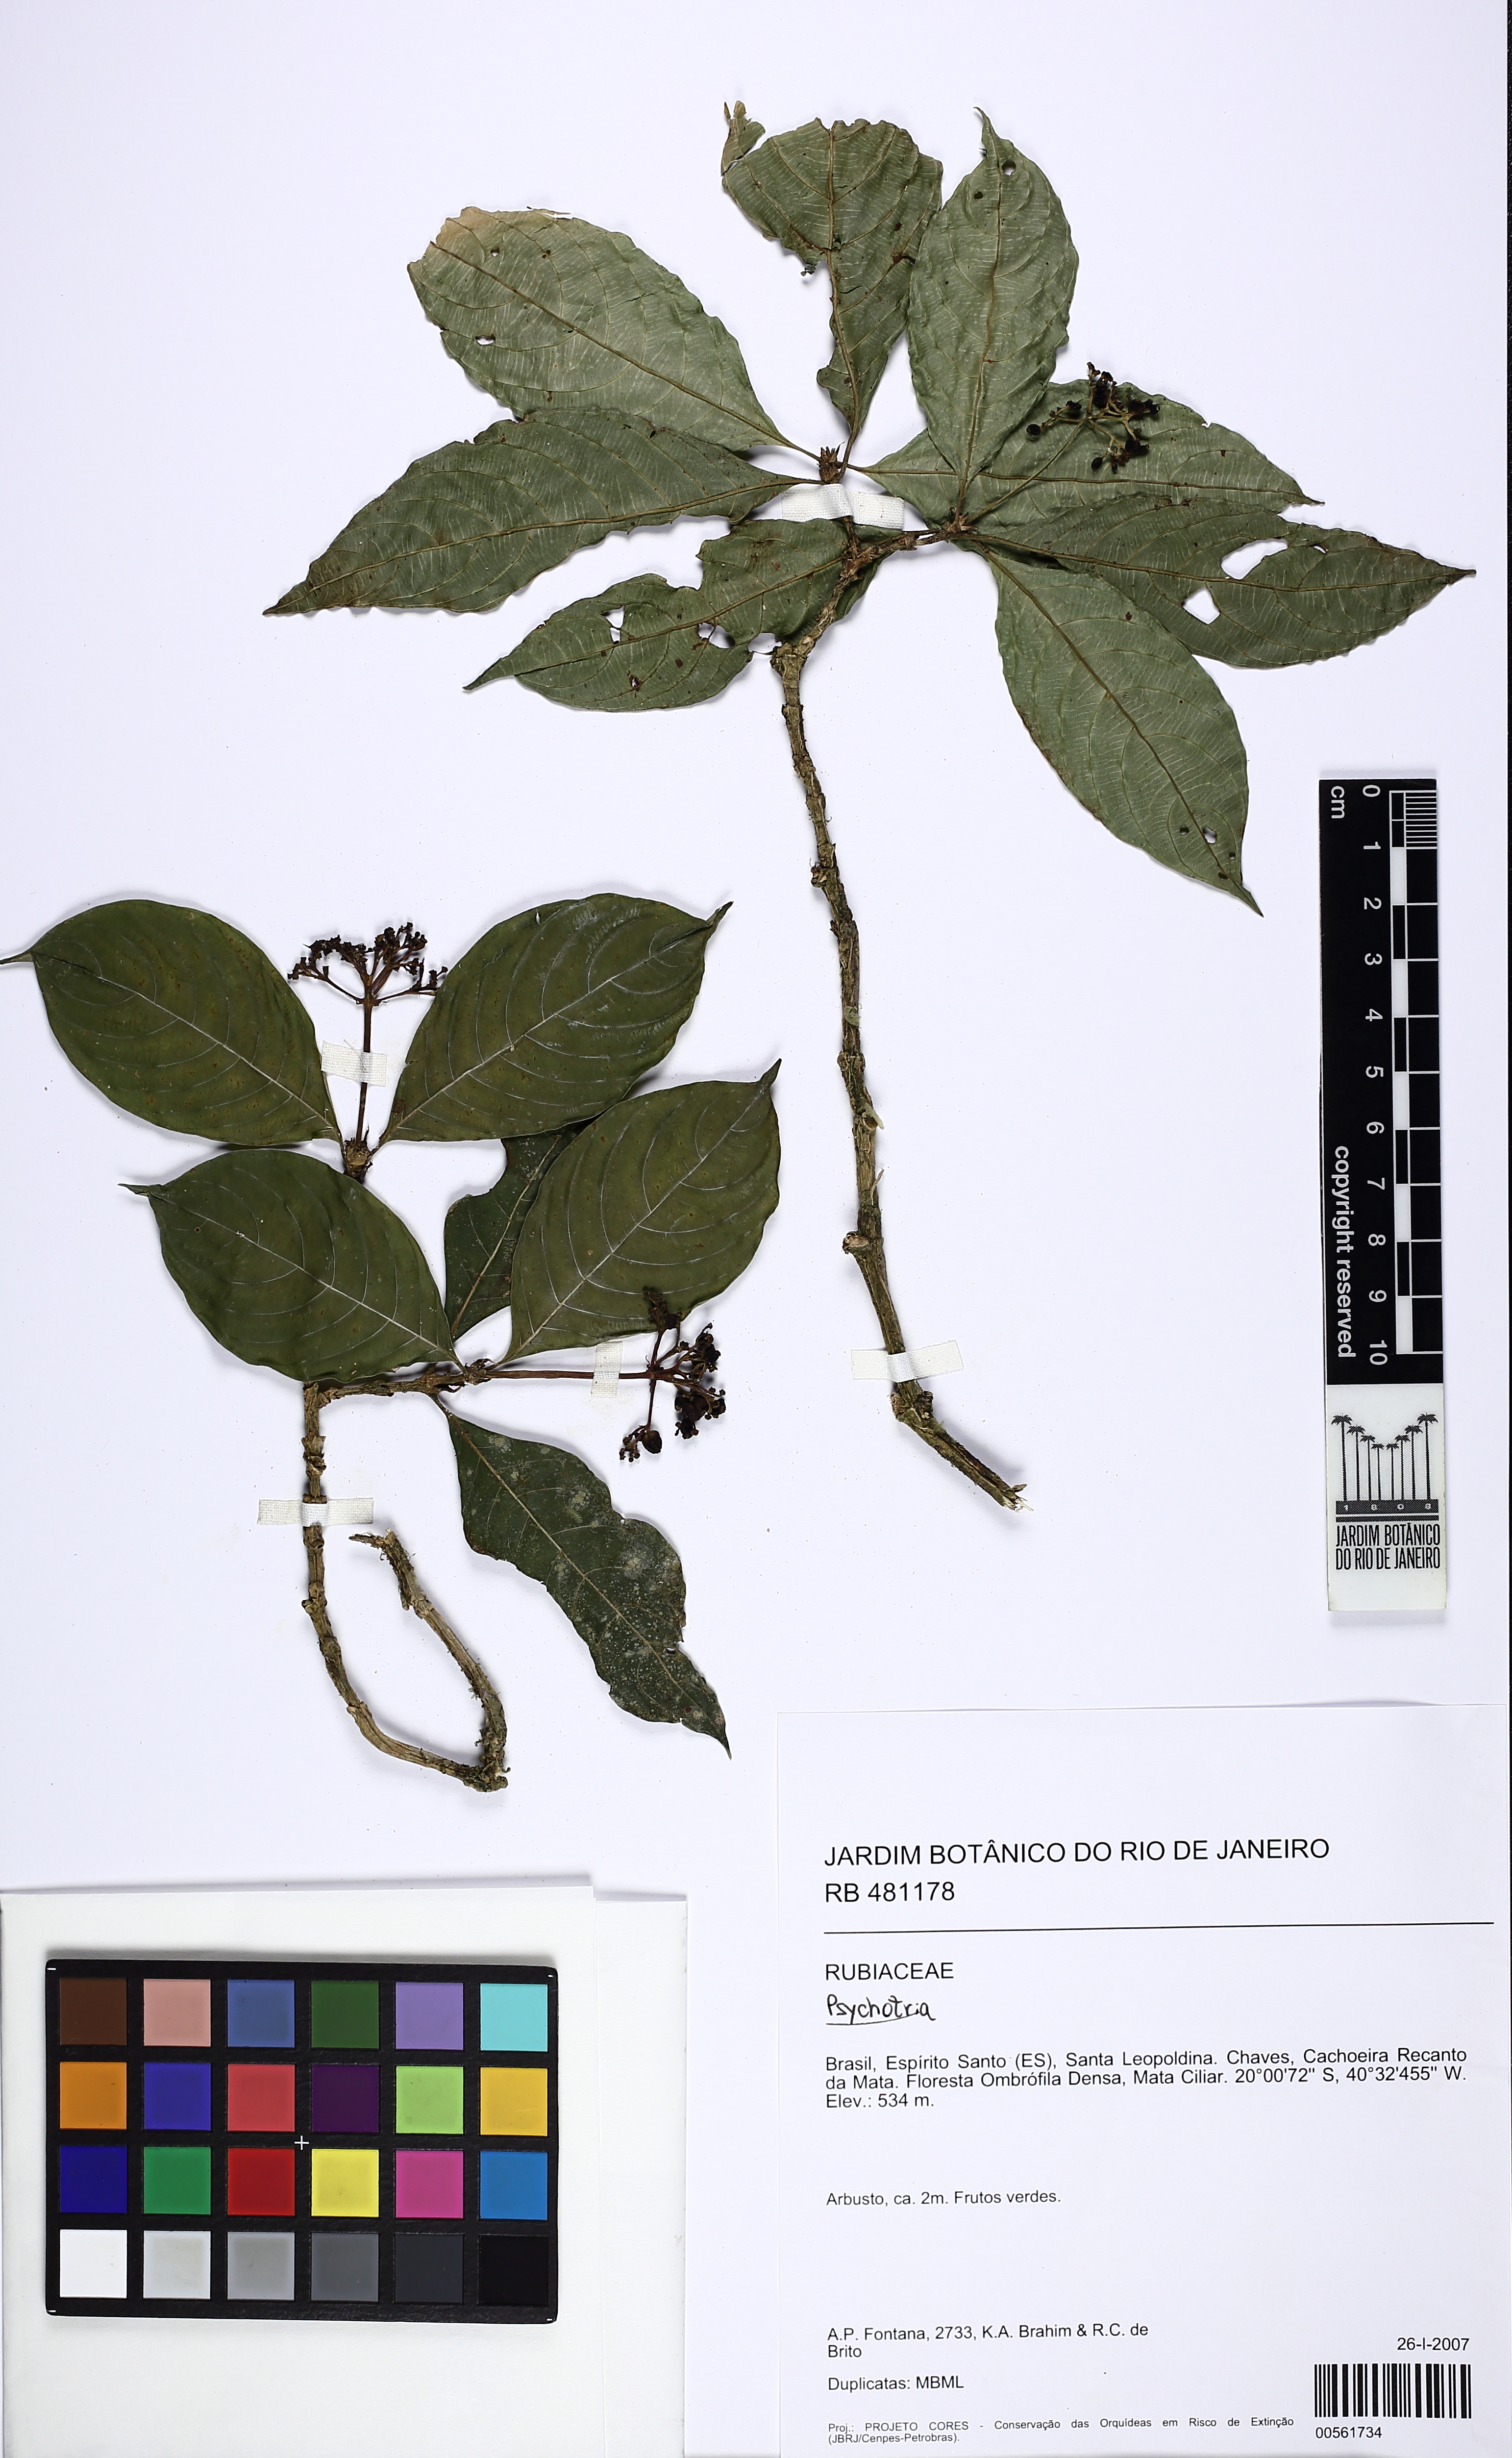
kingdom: Plantae
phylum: Tracheophyta
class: Magnoliopsida
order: Gentianales
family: Rubiaceae
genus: Psychotria
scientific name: Psychotria rhytidocarpa
